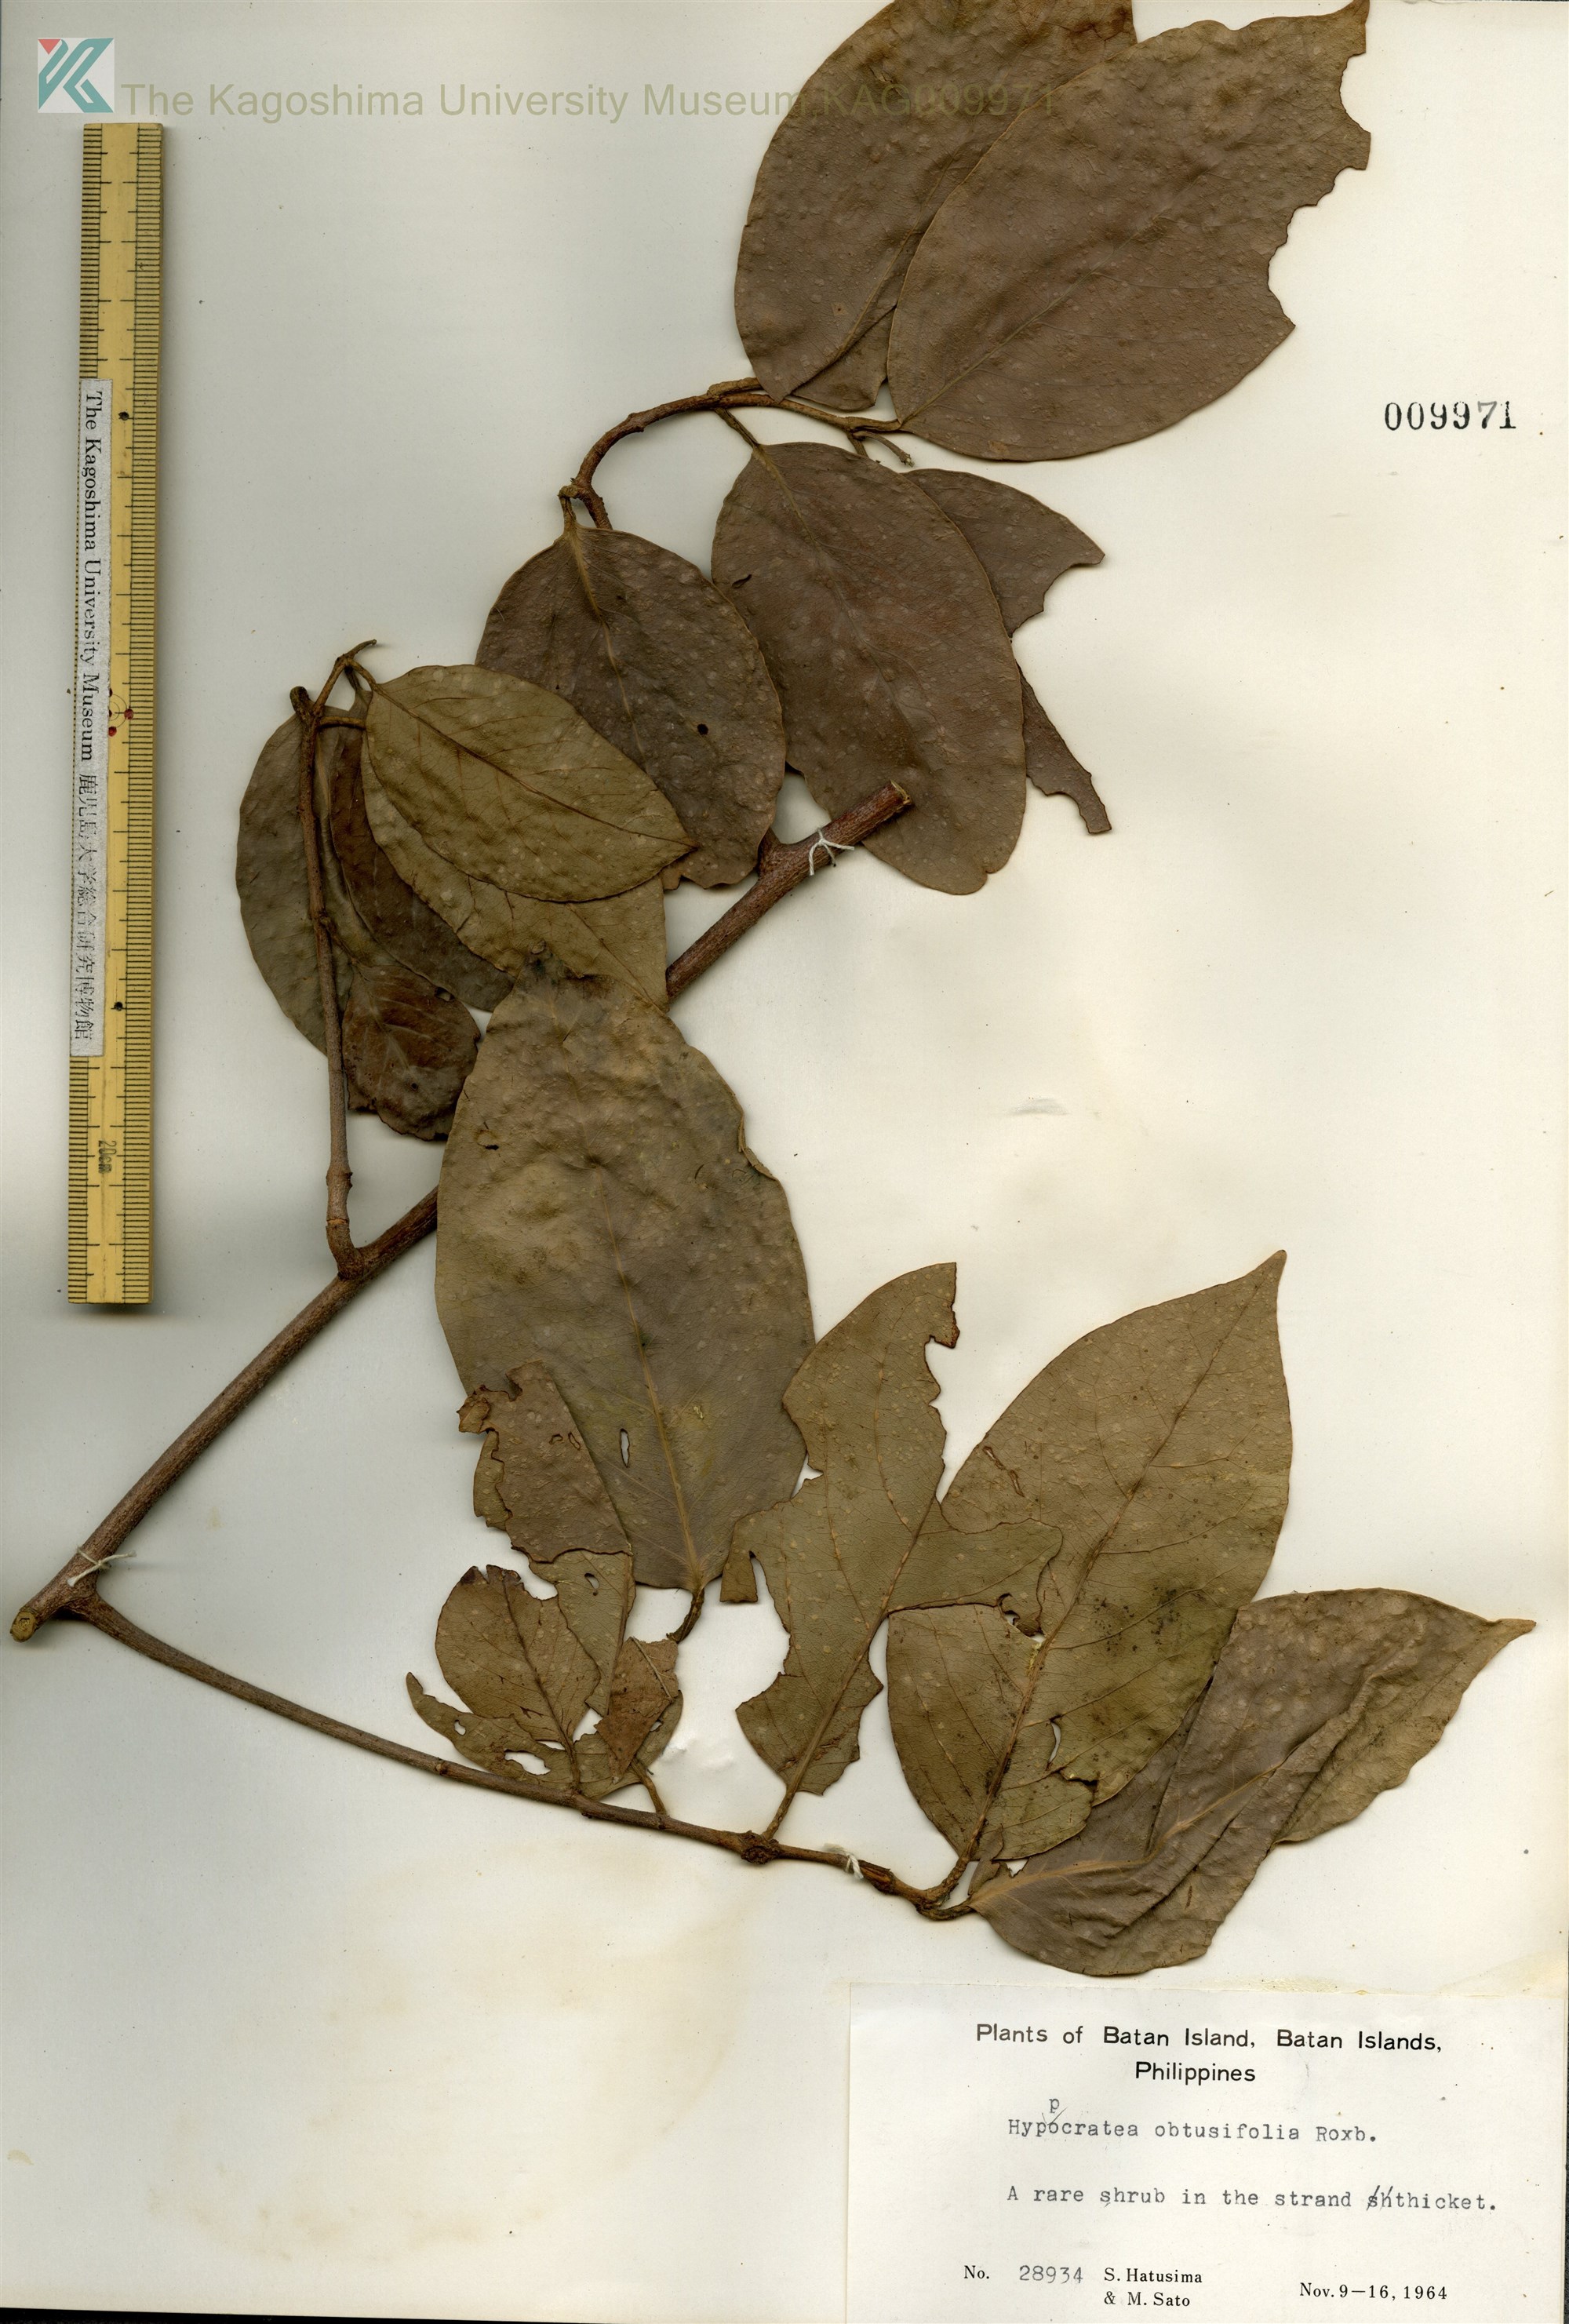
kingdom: Plantae
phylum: Tracheophyta
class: Magnoliopsida
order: Celastrales
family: Celastraceae
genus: Loeseneriella
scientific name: Loeseneriella obtusifolia
